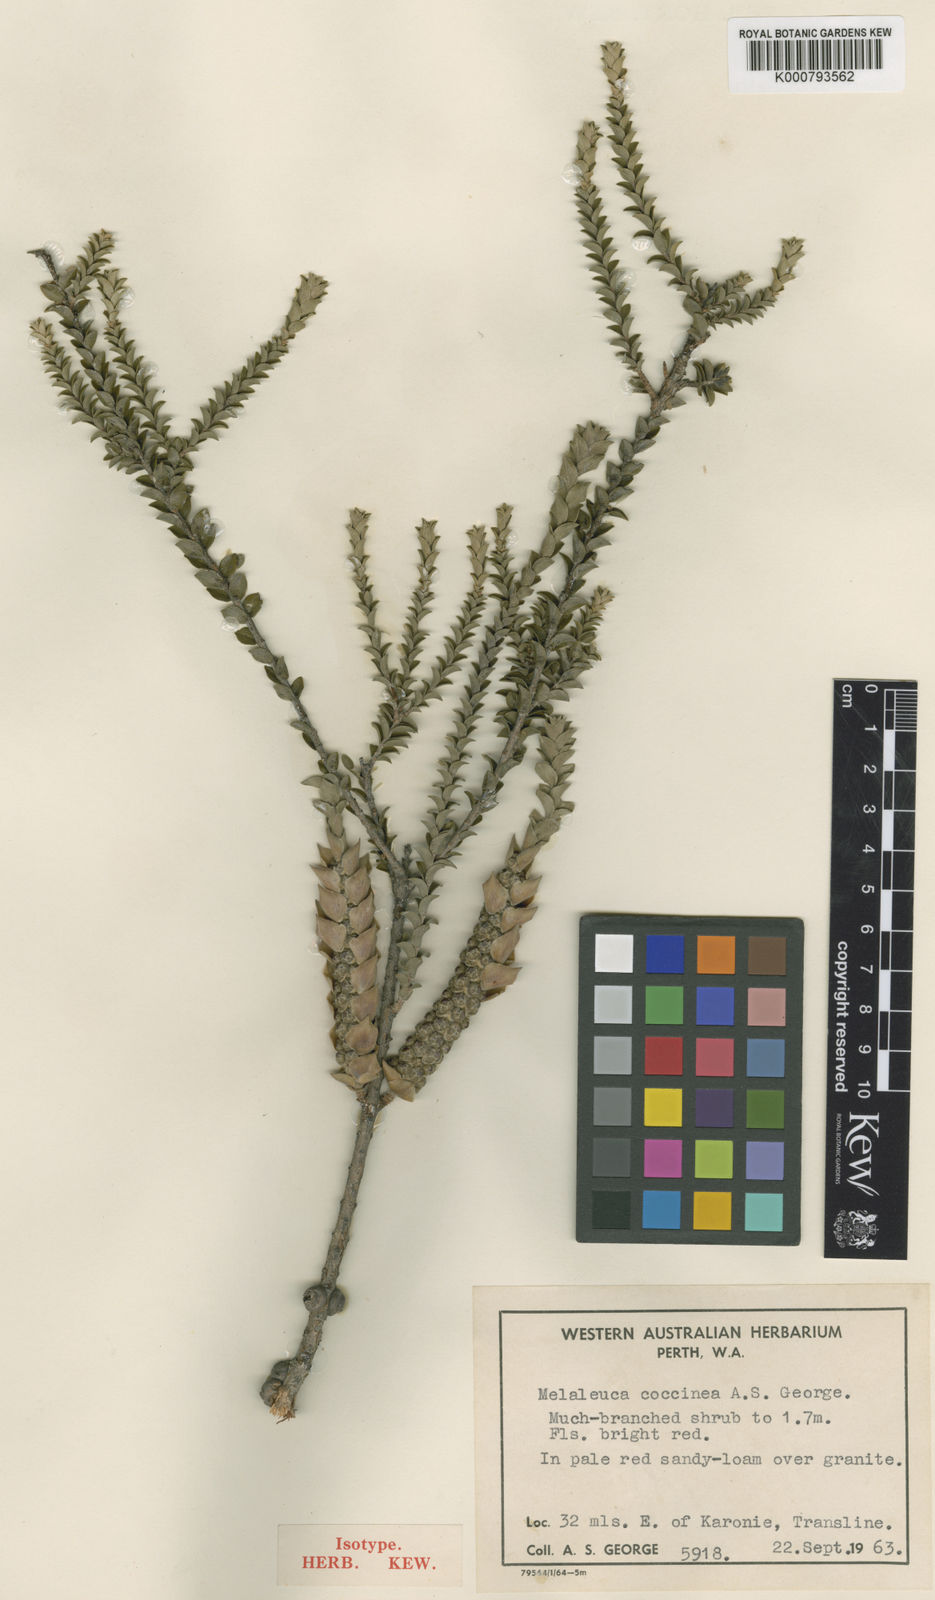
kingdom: Plantae
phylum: Tracheophyta
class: Magnoliopsida
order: Myrtales
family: Myrtaceae
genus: Melaleuca
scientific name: Melaleuca coccinea
